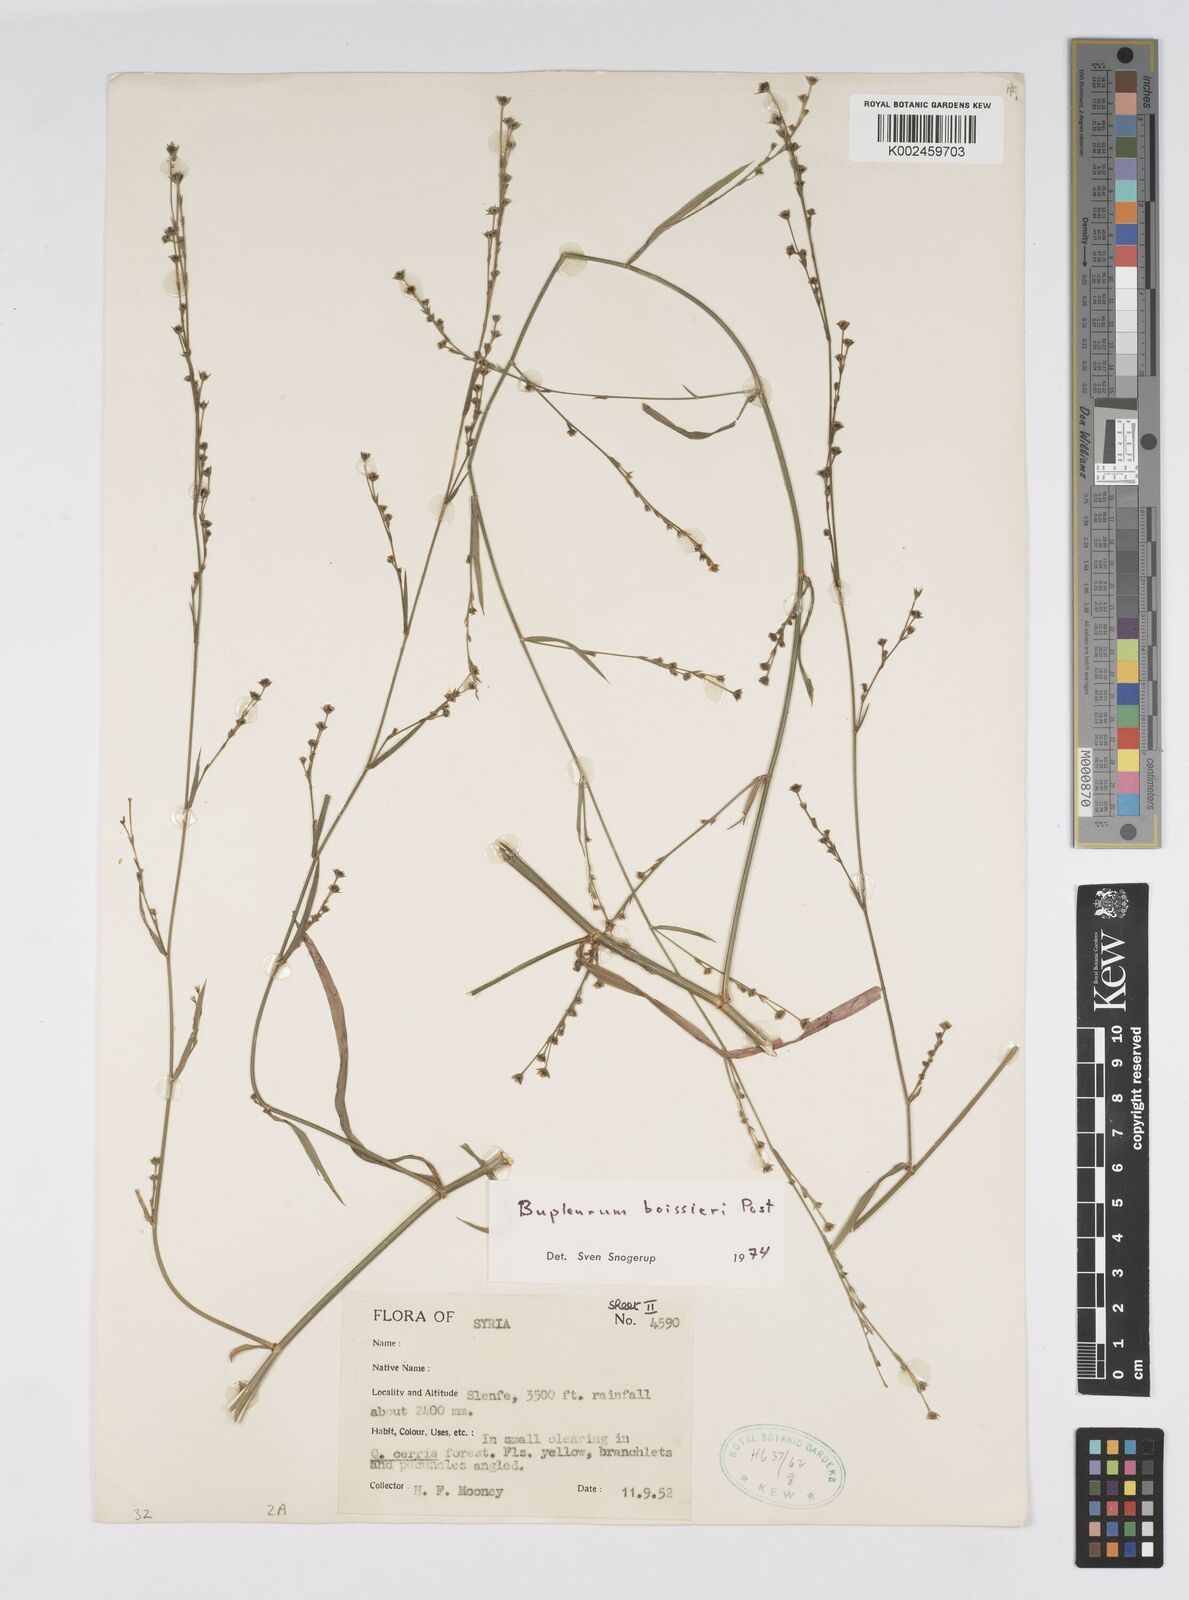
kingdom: Plantae
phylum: Tracheophyta
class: Magnoliopsida
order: Apiales
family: Apiaceae
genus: Bupleurum
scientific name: Bupleurum boissieri
